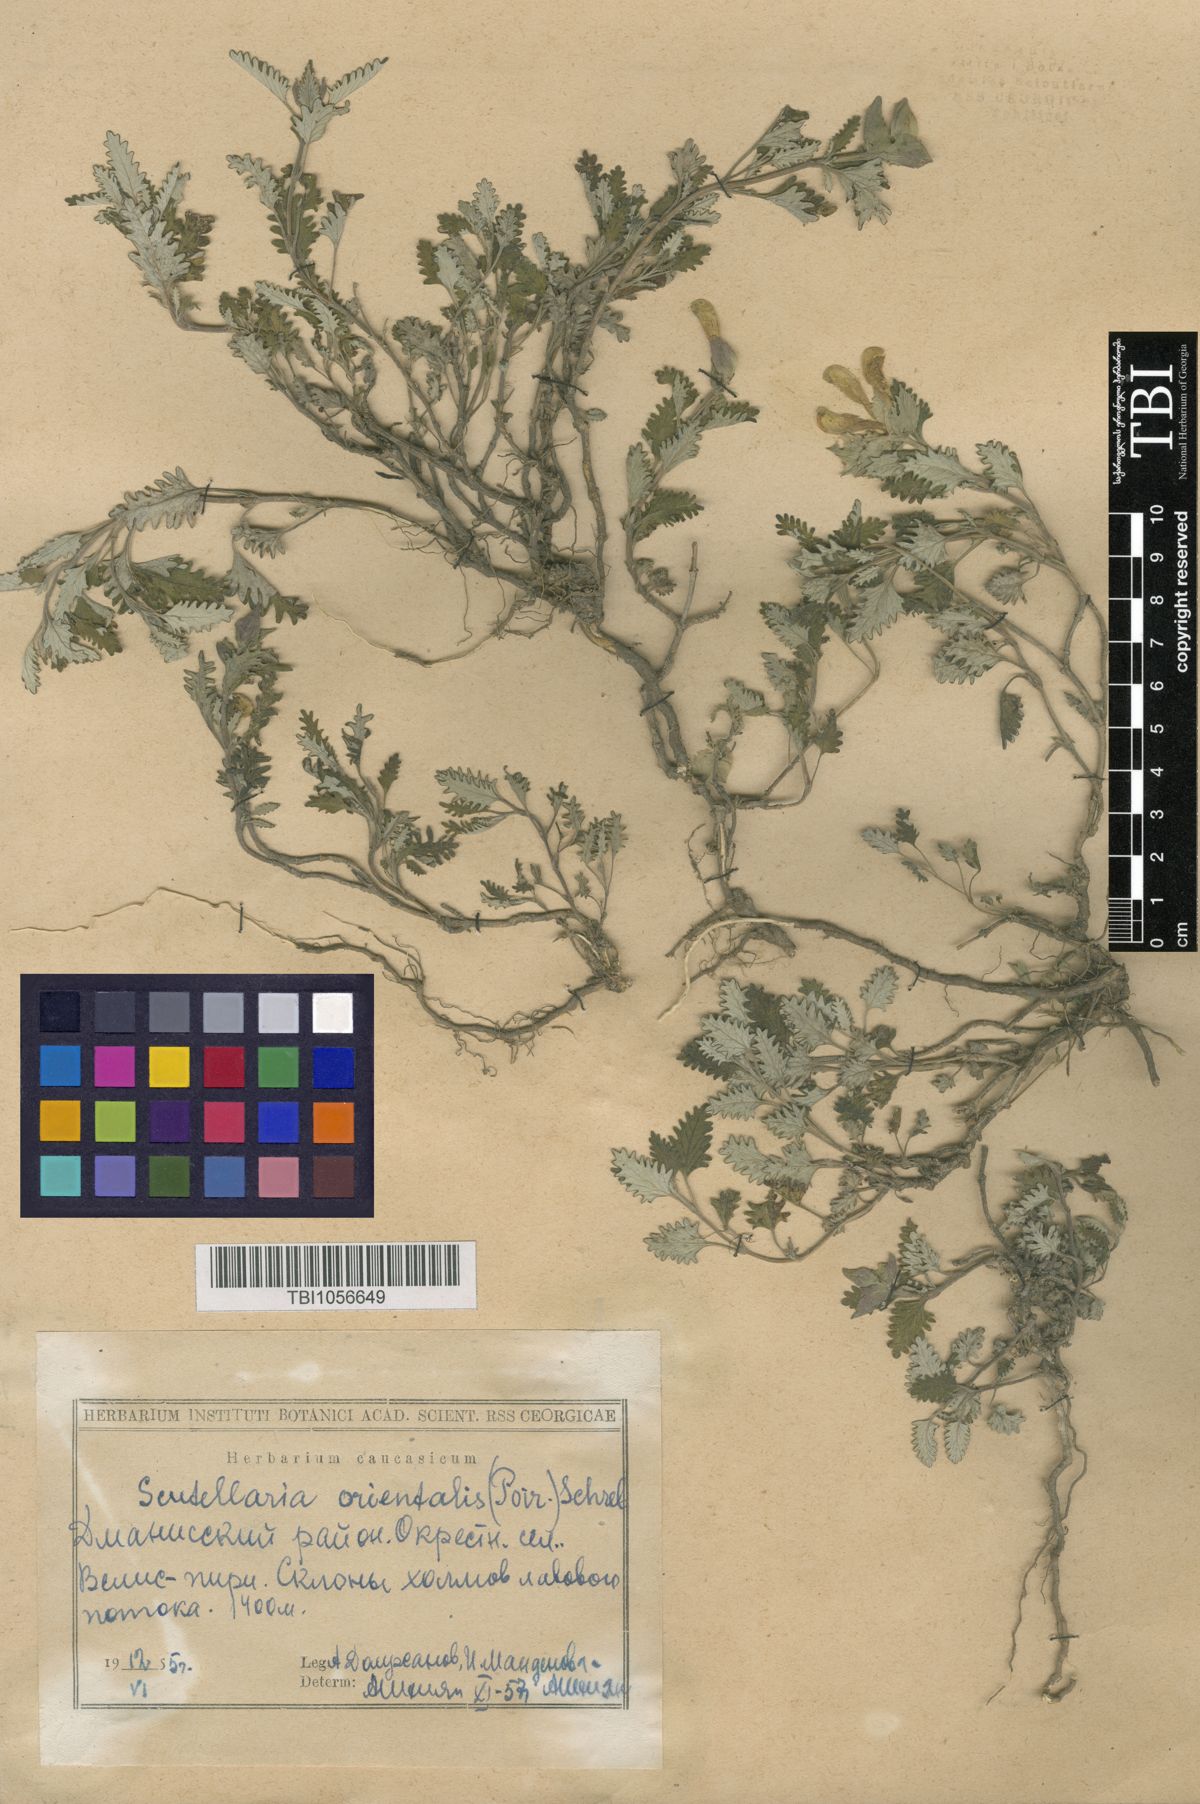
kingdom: Plantae
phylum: Tracheophyta
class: Magnoliopsida
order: Lamiales
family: Lamiaceae
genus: Scutellaria
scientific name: Scutellaria orientalis
